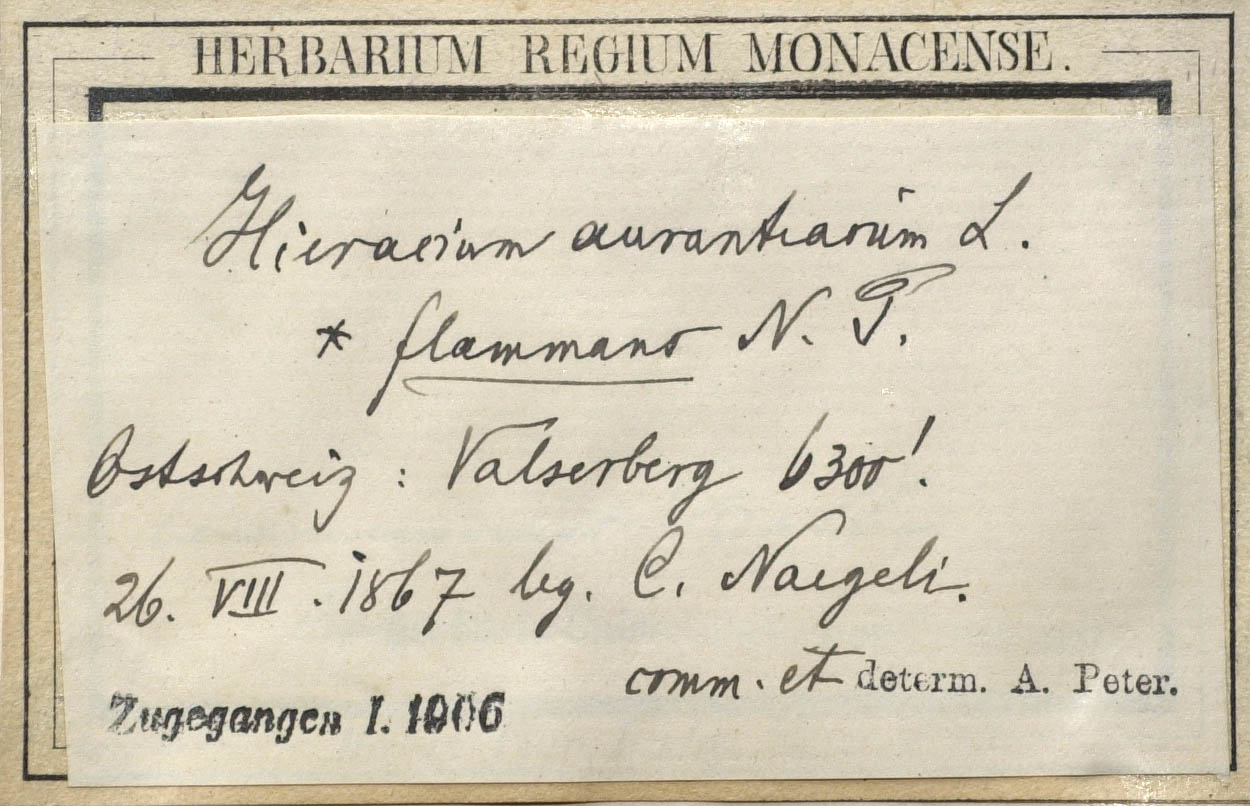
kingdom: Plantae
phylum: Tracheophyta
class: Magnoliopsida
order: Asterales
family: Asteraceae
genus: Pilosella
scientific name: Pilosella aurantiaca
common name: Fox-and-cubs
